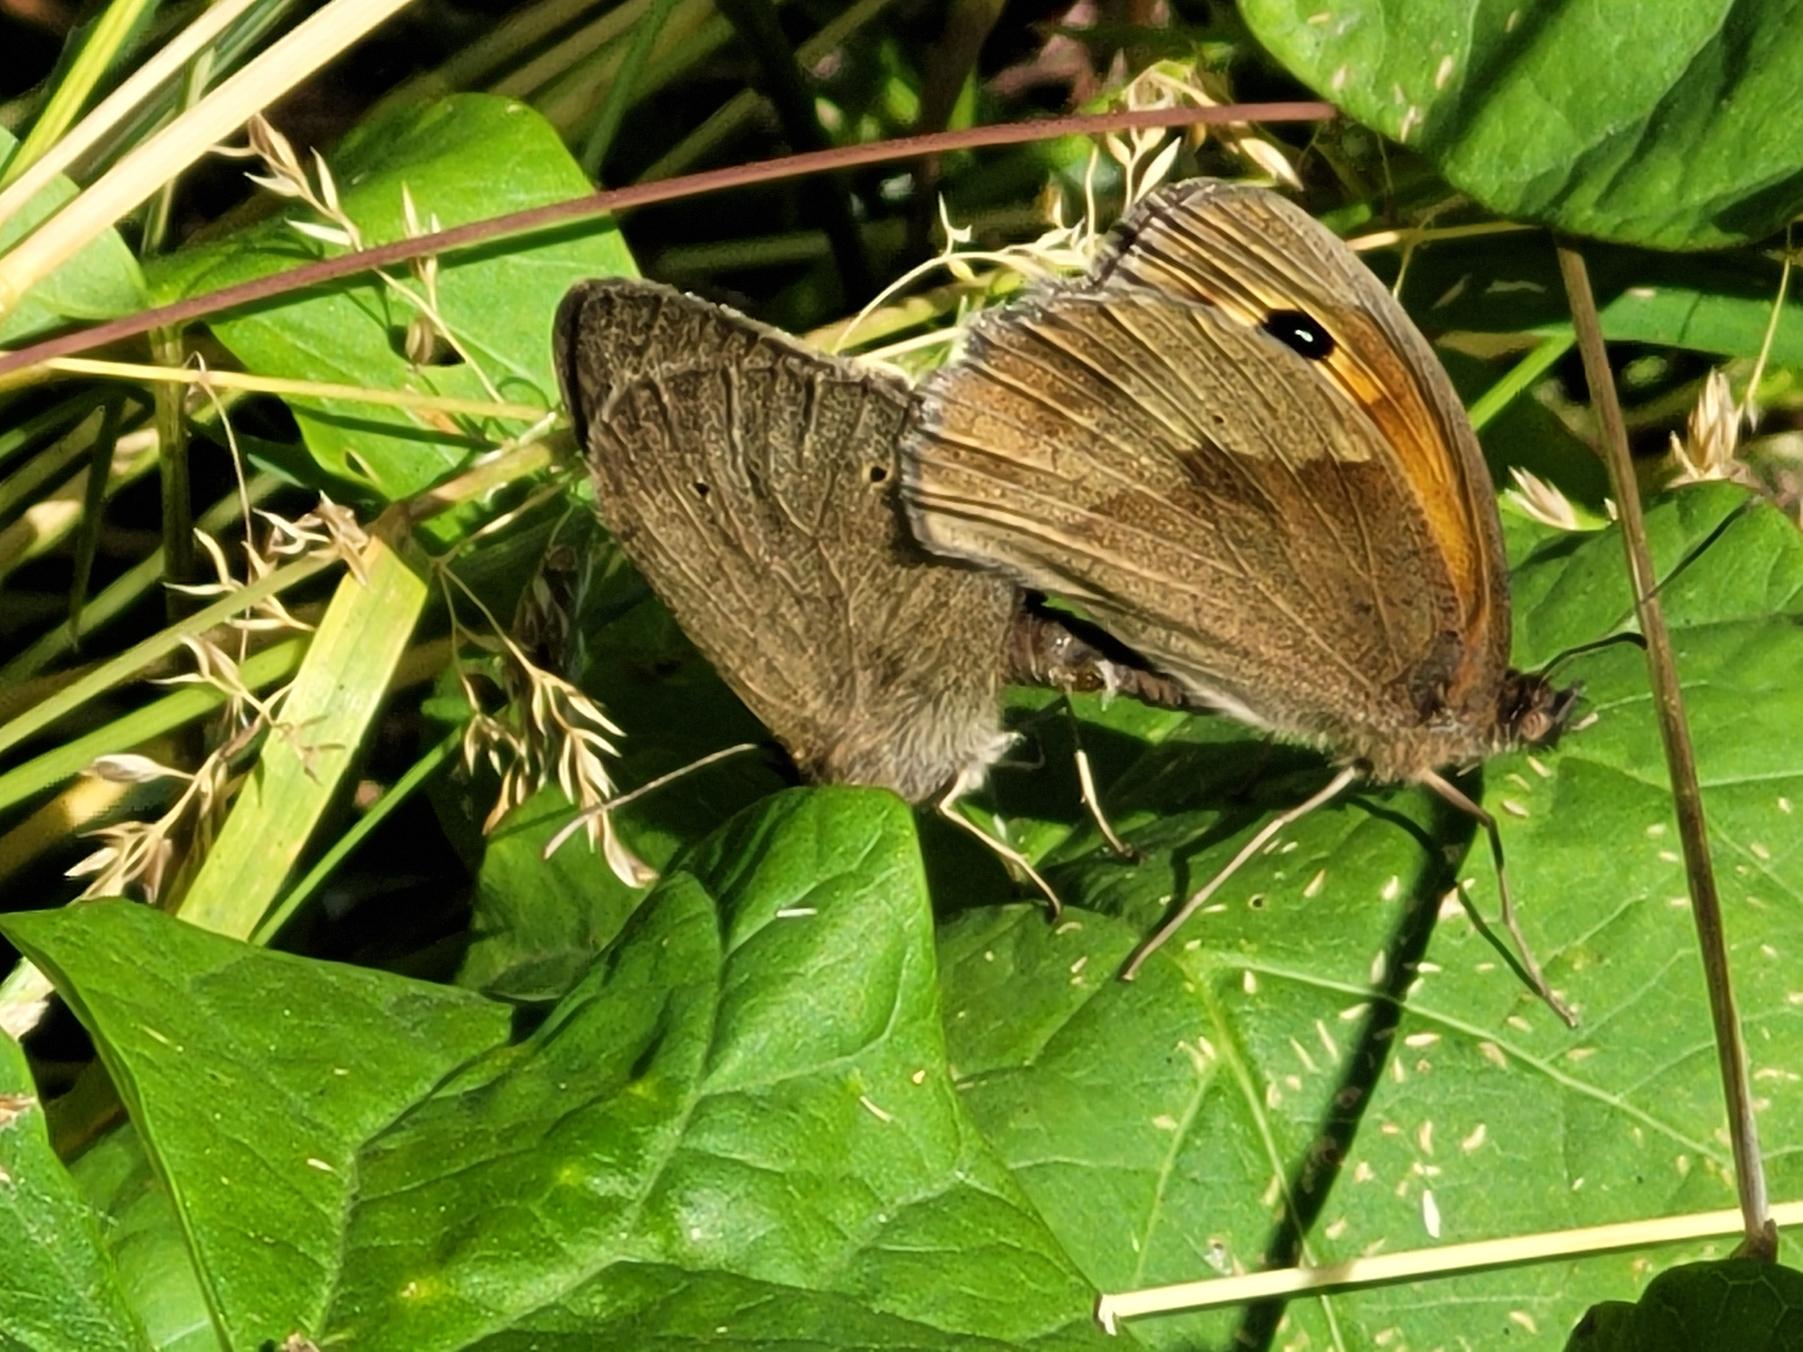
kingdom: Animalia
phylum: Arthropoda
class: Insecta
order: Lepidoptera
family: Nymphalidae
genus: Maniola
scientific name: Maniola jurtina
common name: Græsrandøje
